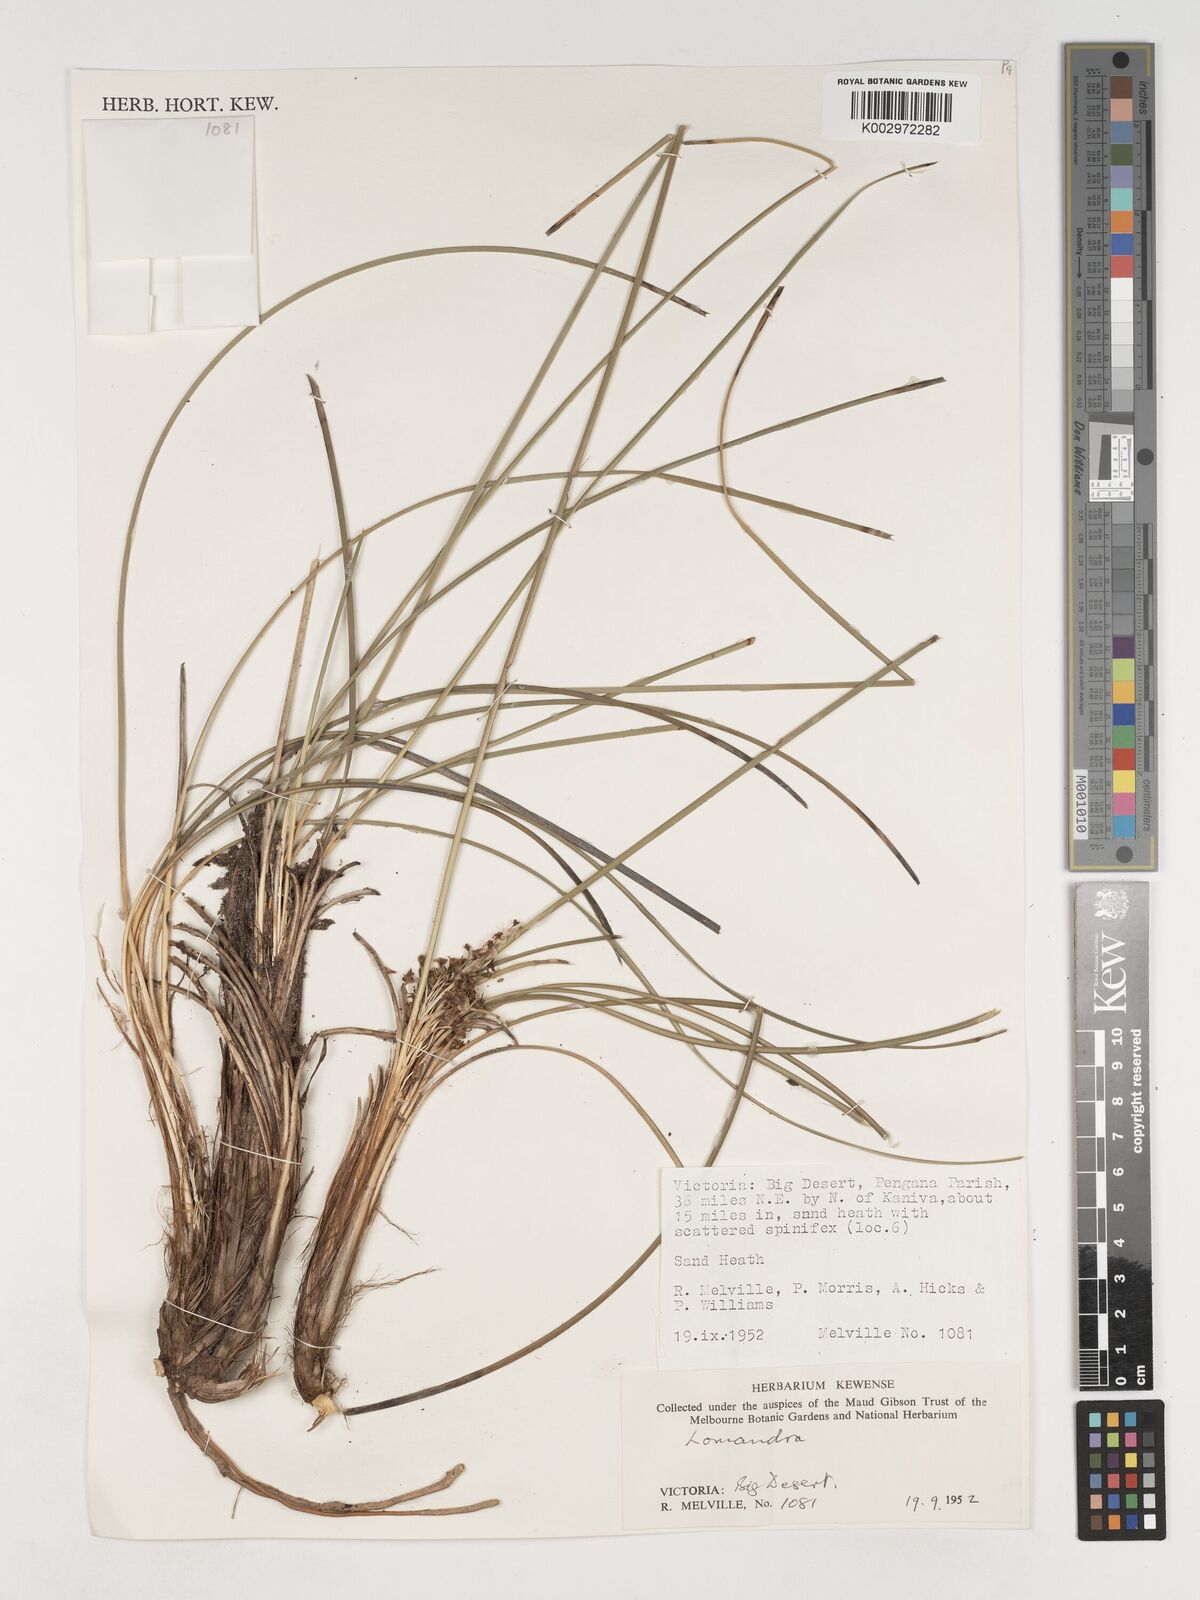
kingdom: Plantae
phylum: Tracheophyta
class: Liliopsida
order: Asparagales
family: Asparagaceae
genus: Lomandra
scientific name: Lomandra
